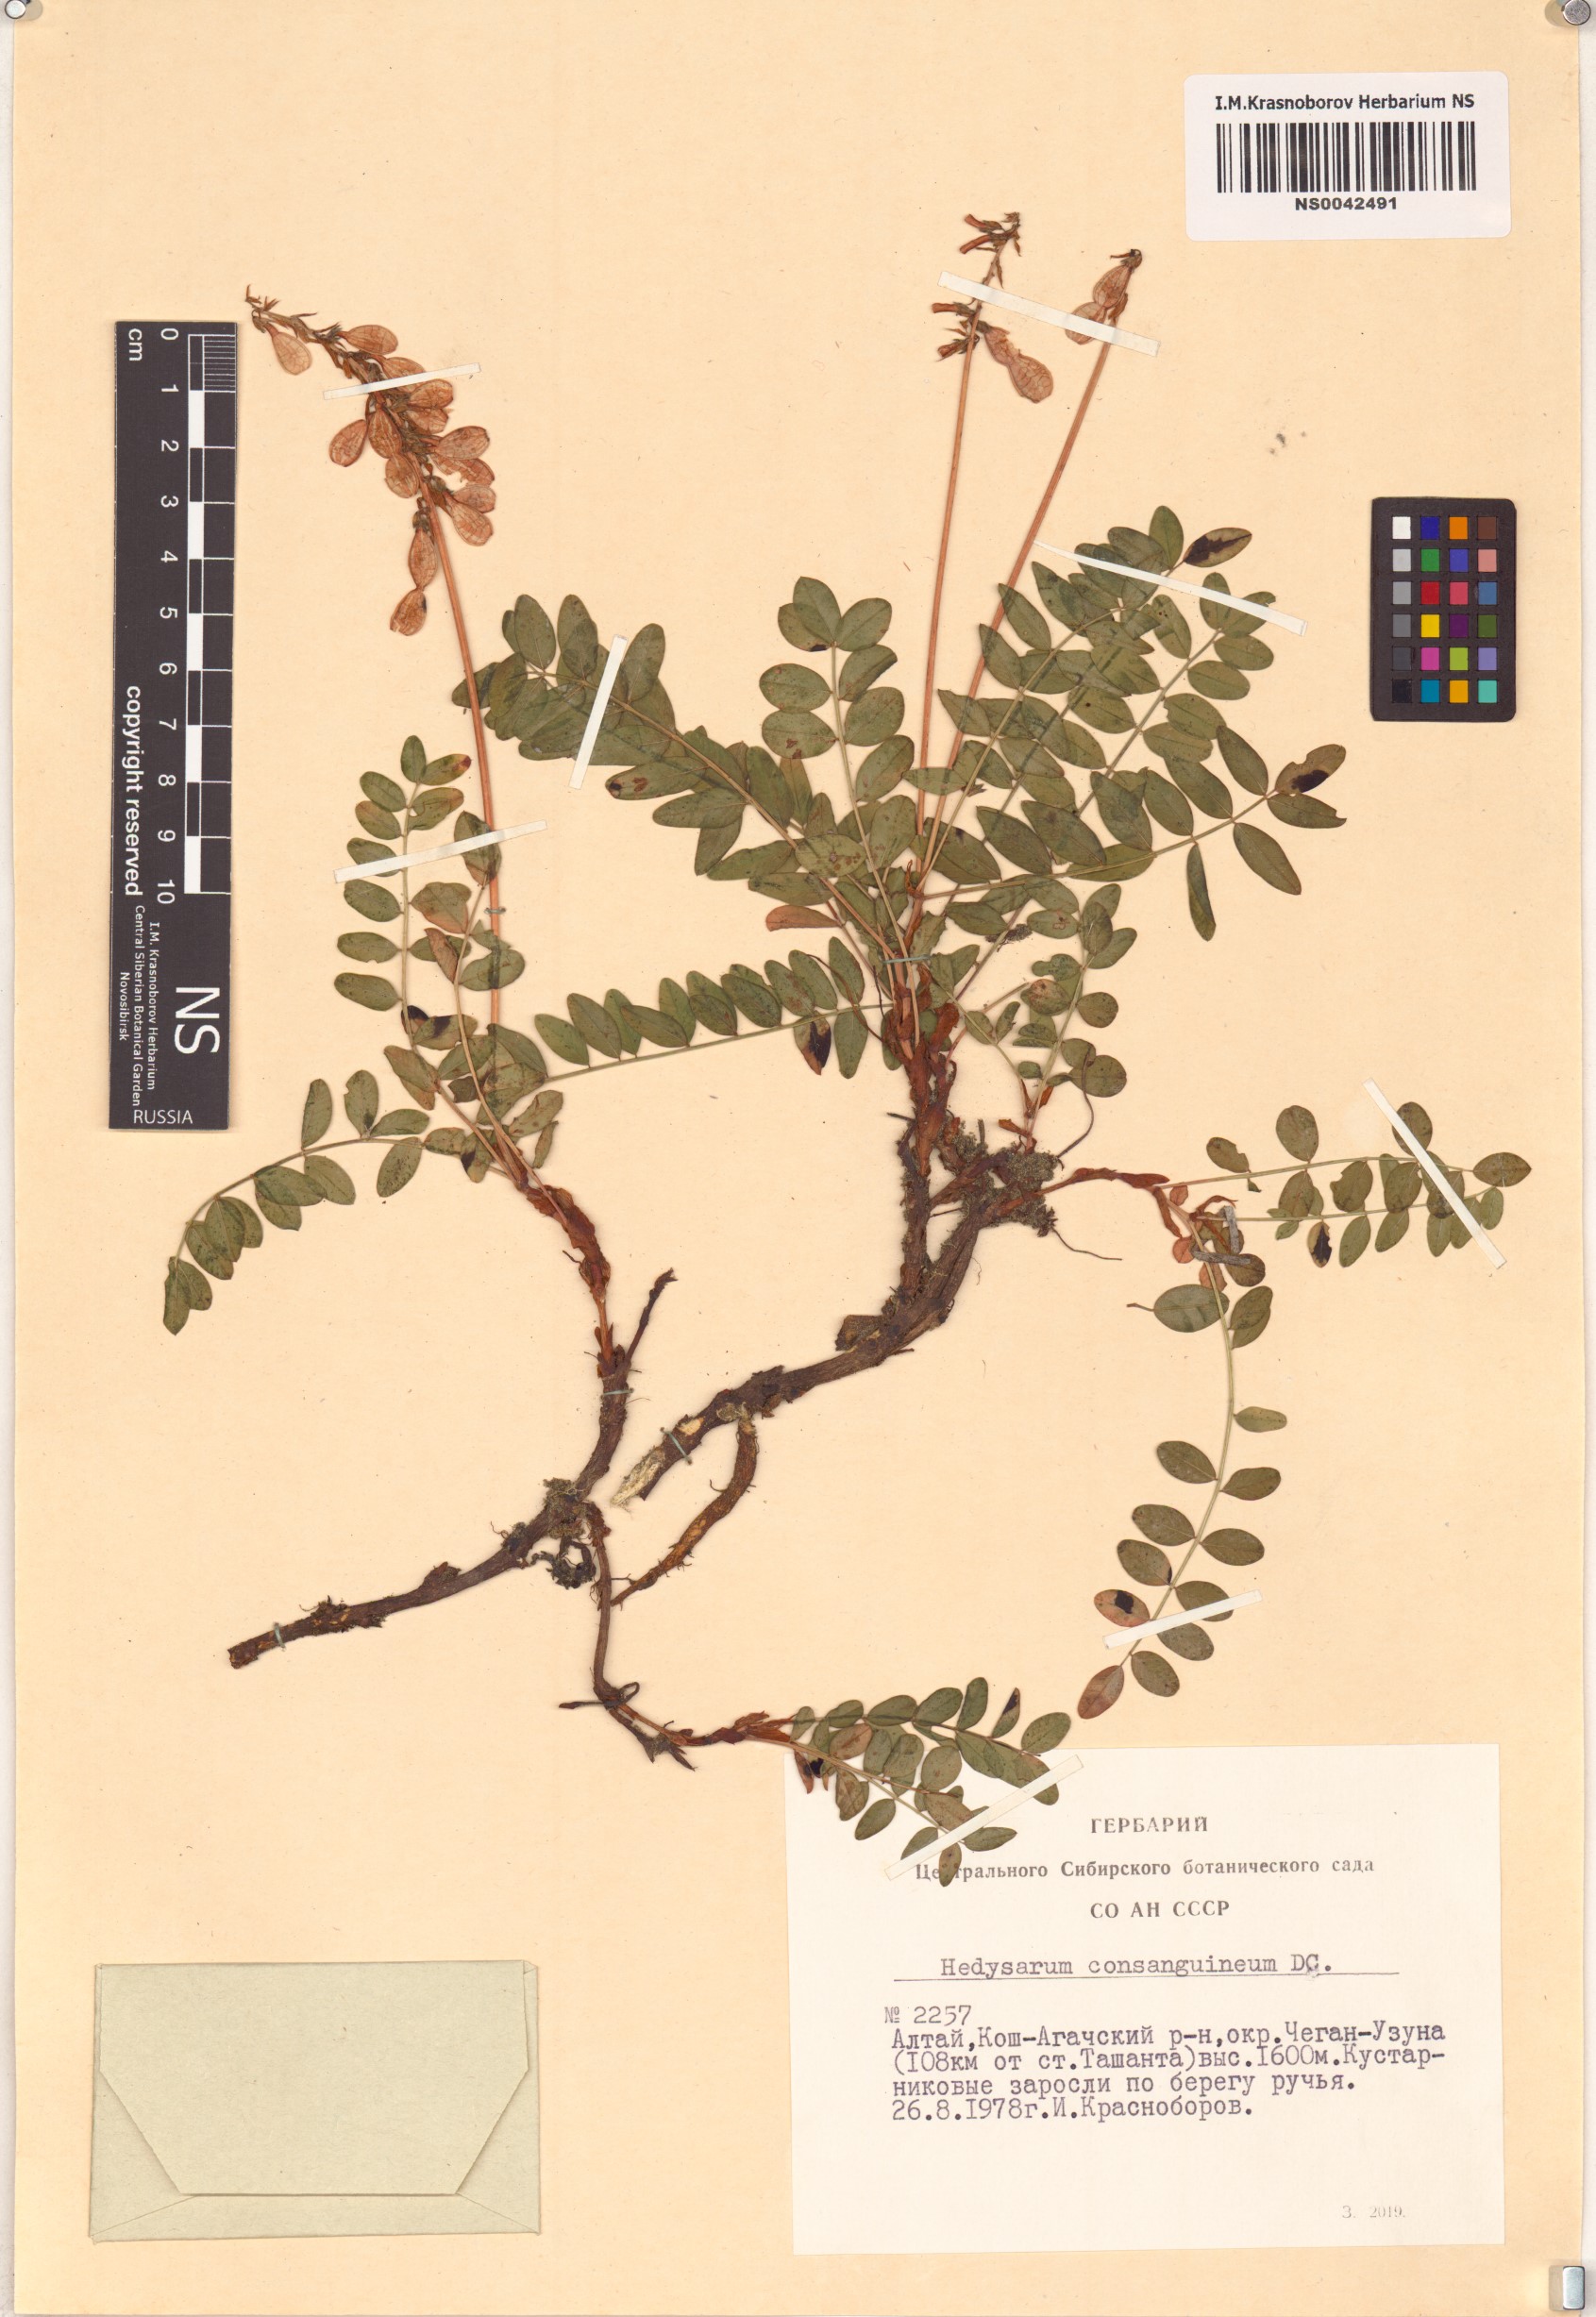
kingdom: Plantae
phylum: Tracheophyta
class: Magnoliopsida
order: Fabales
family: Fabaceae
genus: Hedysarum
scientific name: Hedysarum consanguineum
